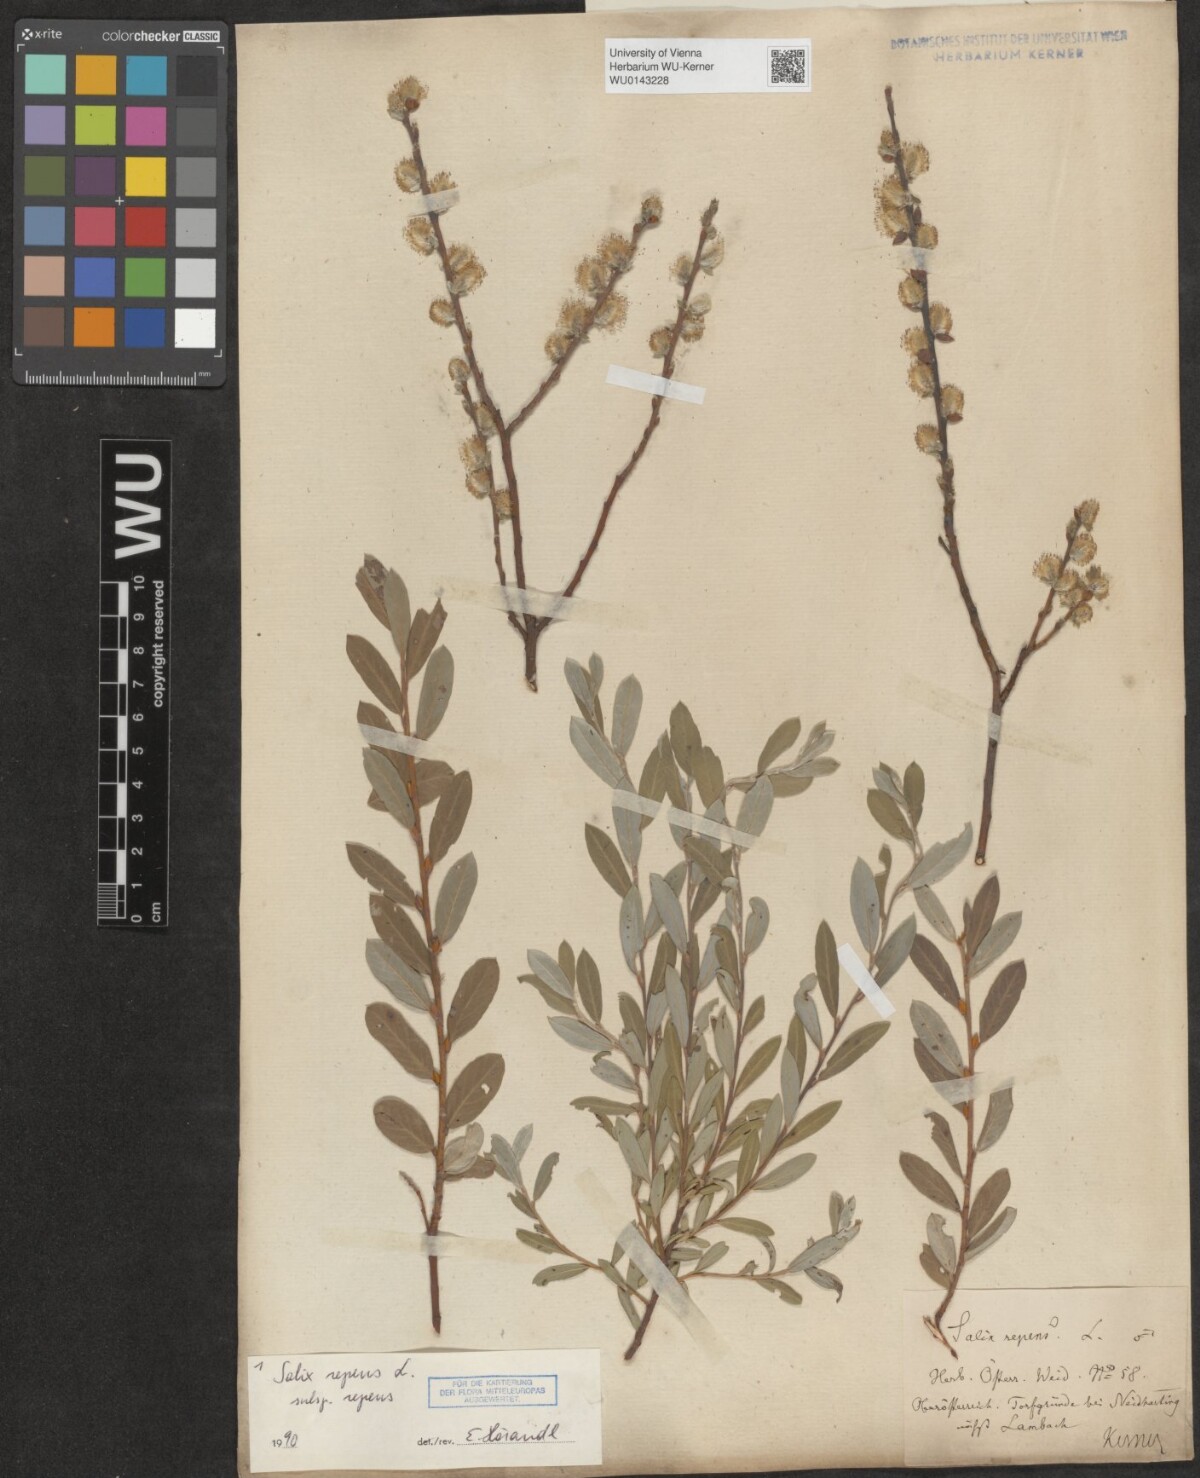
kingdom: Plantae
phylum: Tracheophyta
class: Magnoliopsida
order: Malpighiales
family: Salicaceae
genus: Salix
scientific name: Salix repens
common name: Creeping willow
